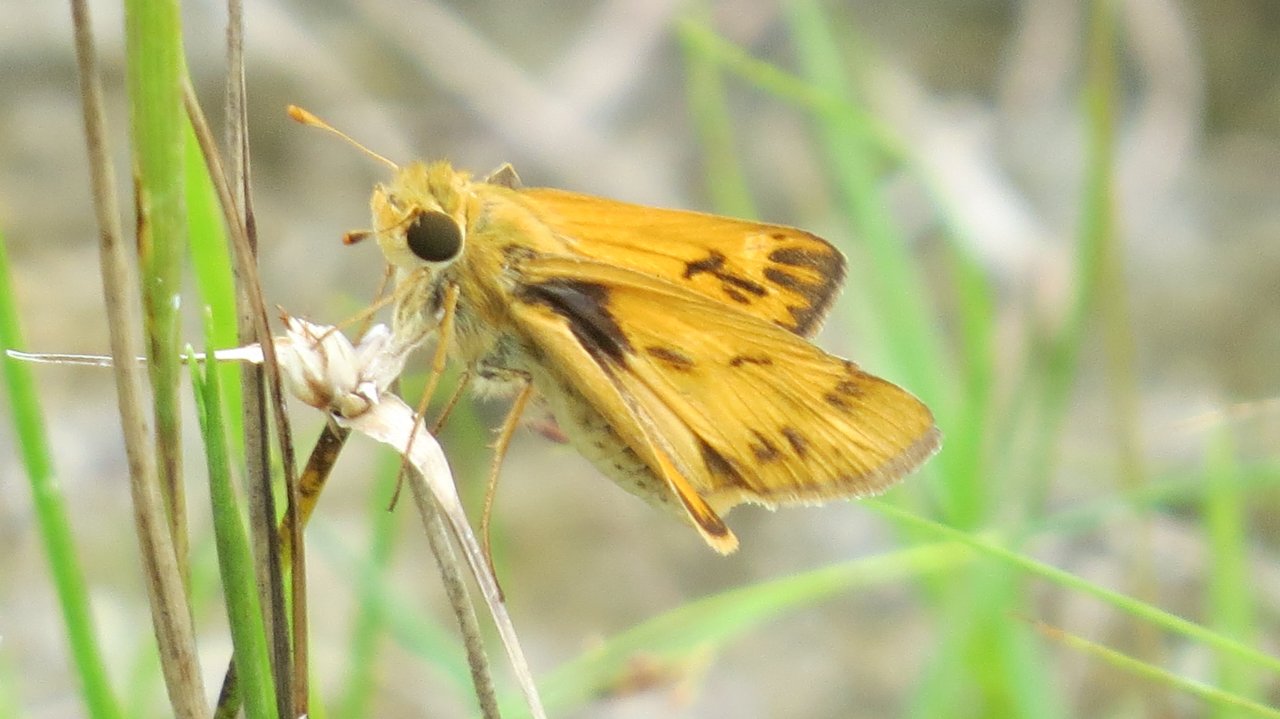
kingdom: Animalia
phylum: Arthropoda
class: Insecta
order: Lepidoptera
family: Hesperiidae
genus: Hylephila
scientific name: Hylephila phyleus
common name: Fiery Skipper
